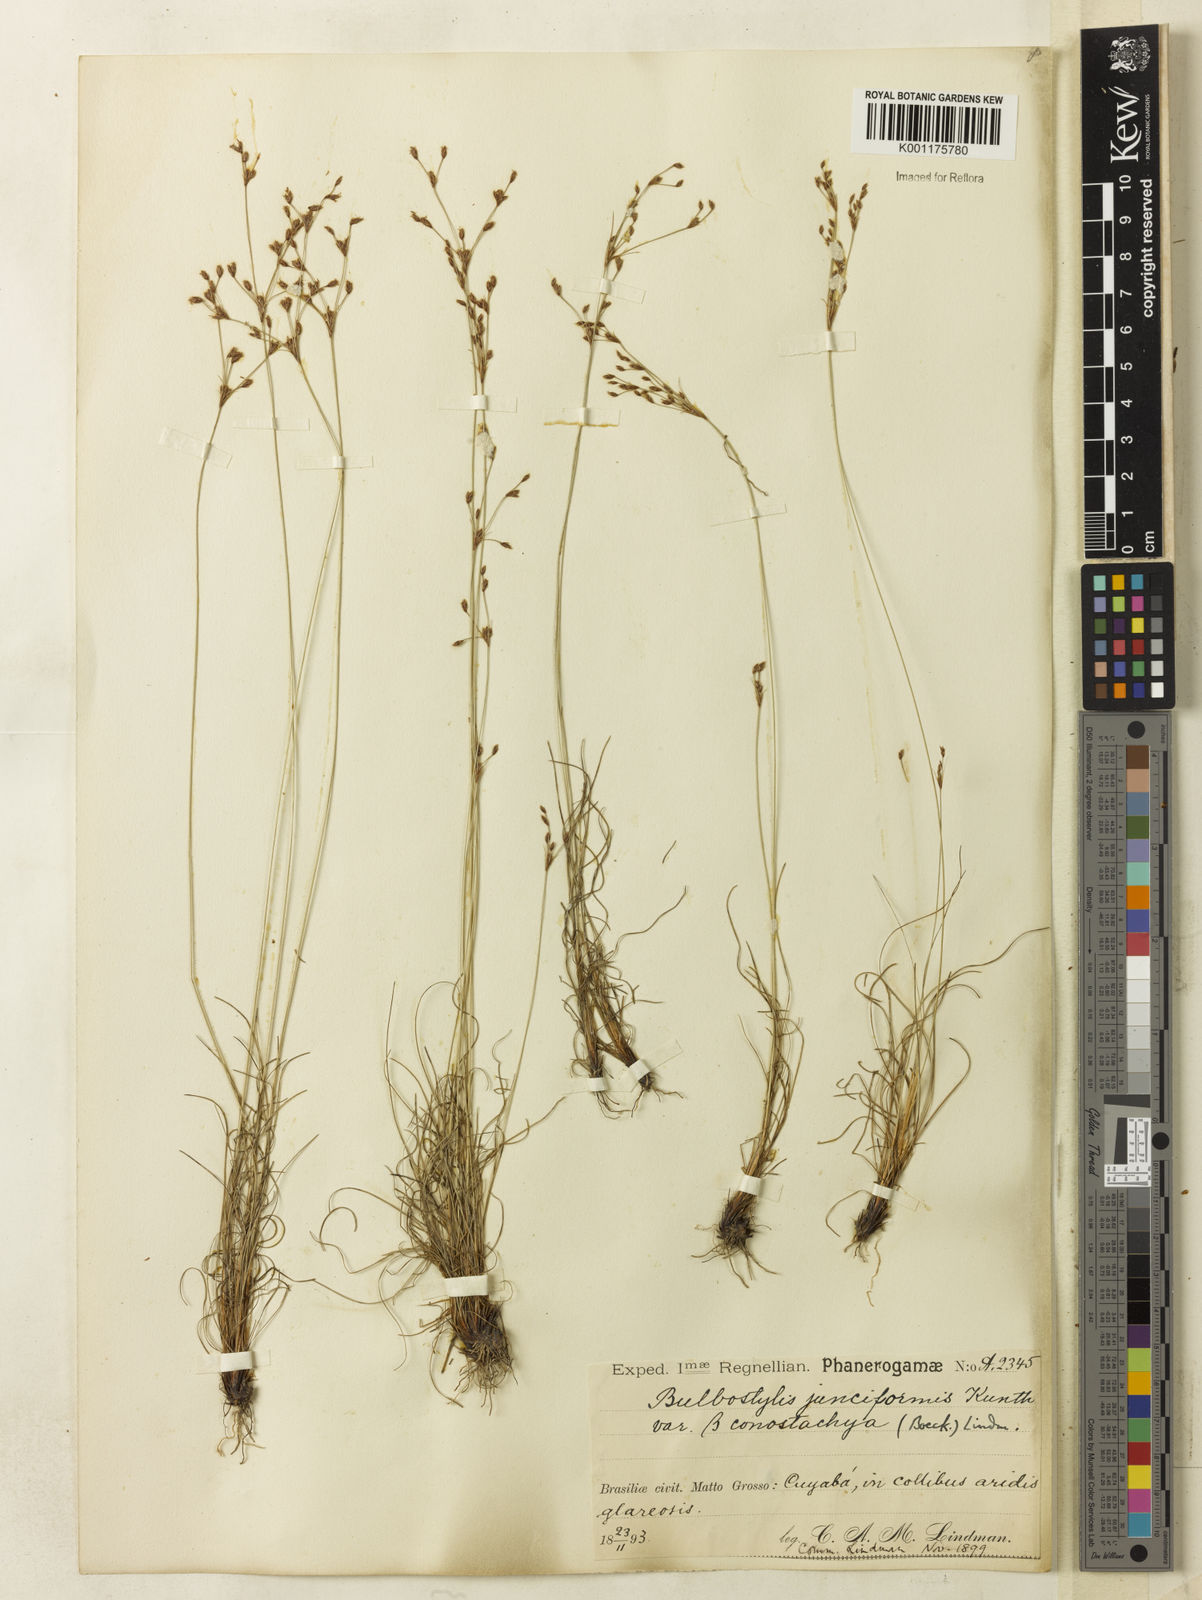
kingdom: Plantae
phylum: Tracheophyta
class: Liliopsida
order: Poales
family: Cyperaceae
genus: Bulbostylis
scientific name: Bulbostylis conostachya
